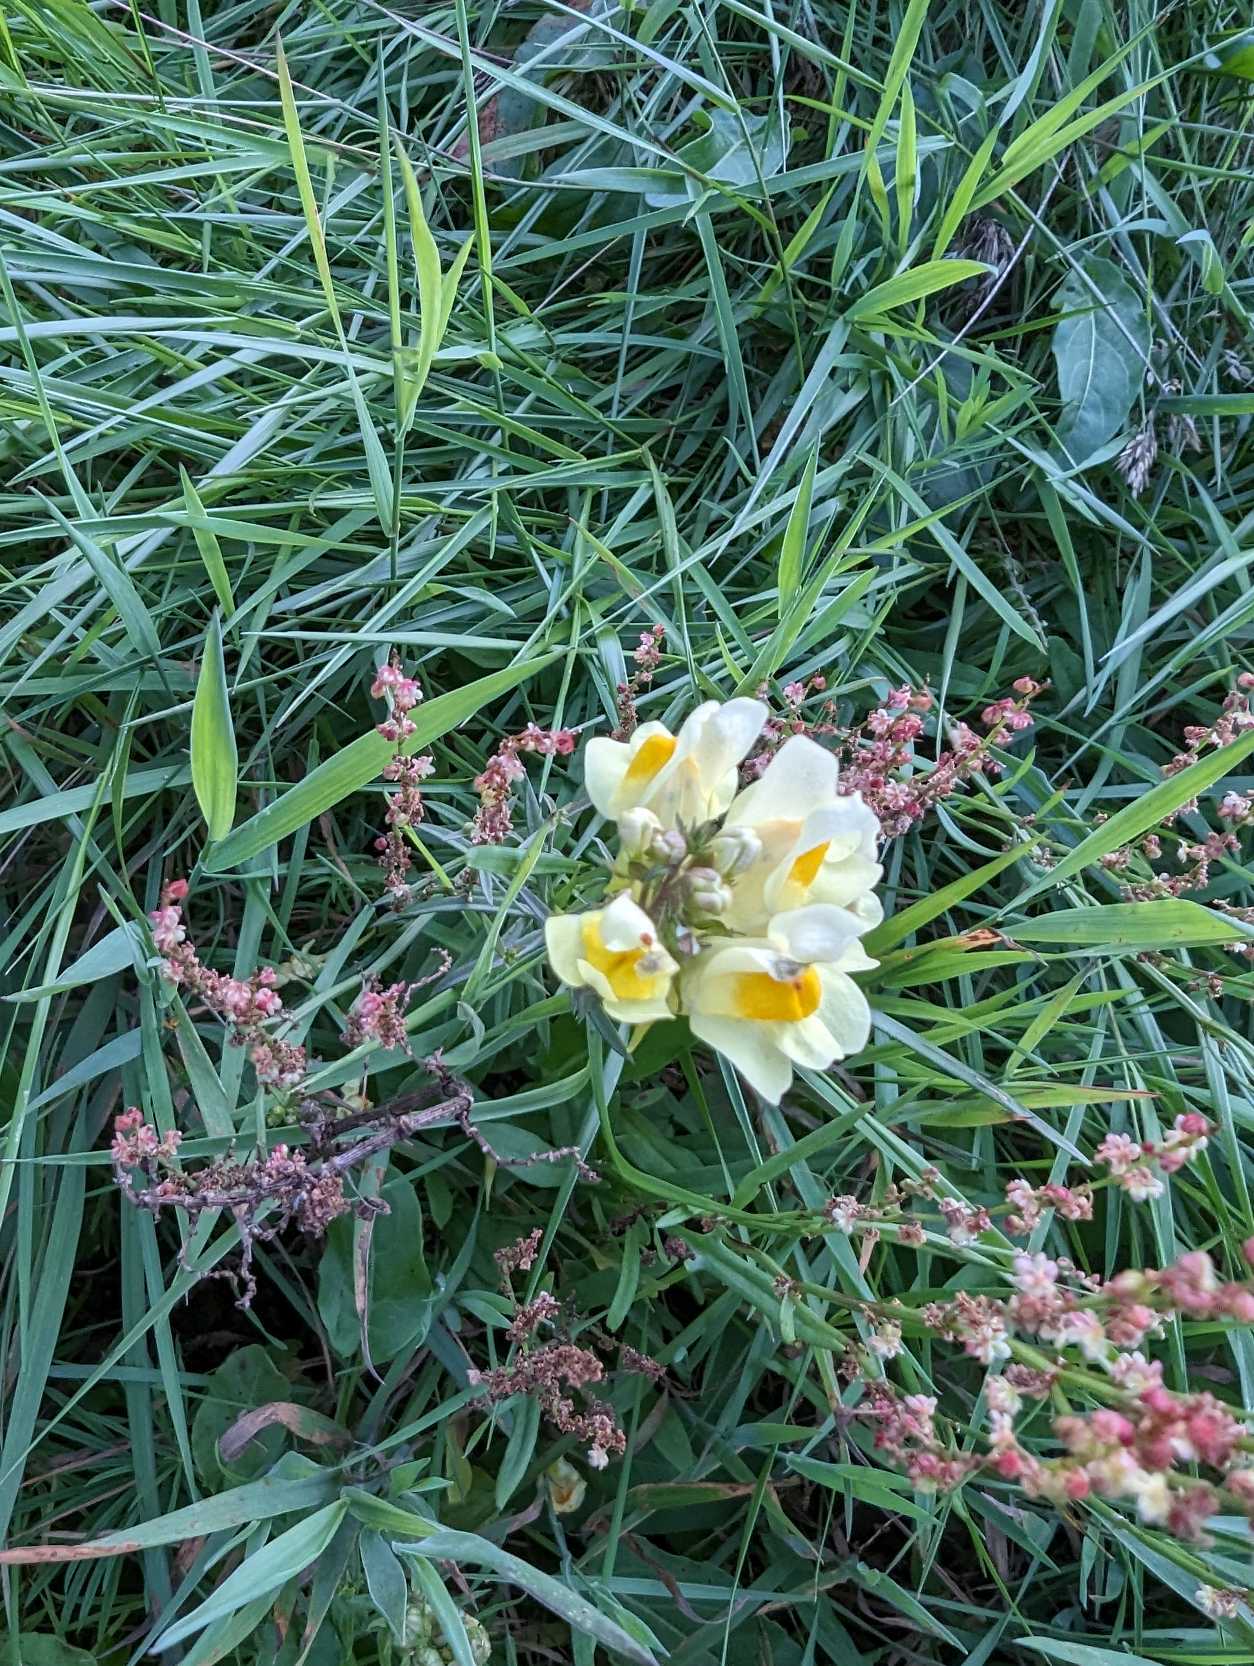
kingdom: Plantae
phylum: Tracheophyta
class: Magnoliopsida
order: Lamiales
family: Plantaginaceae
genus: Linaria
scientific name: Linaria vulgaris
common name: Almindelig torskemund
